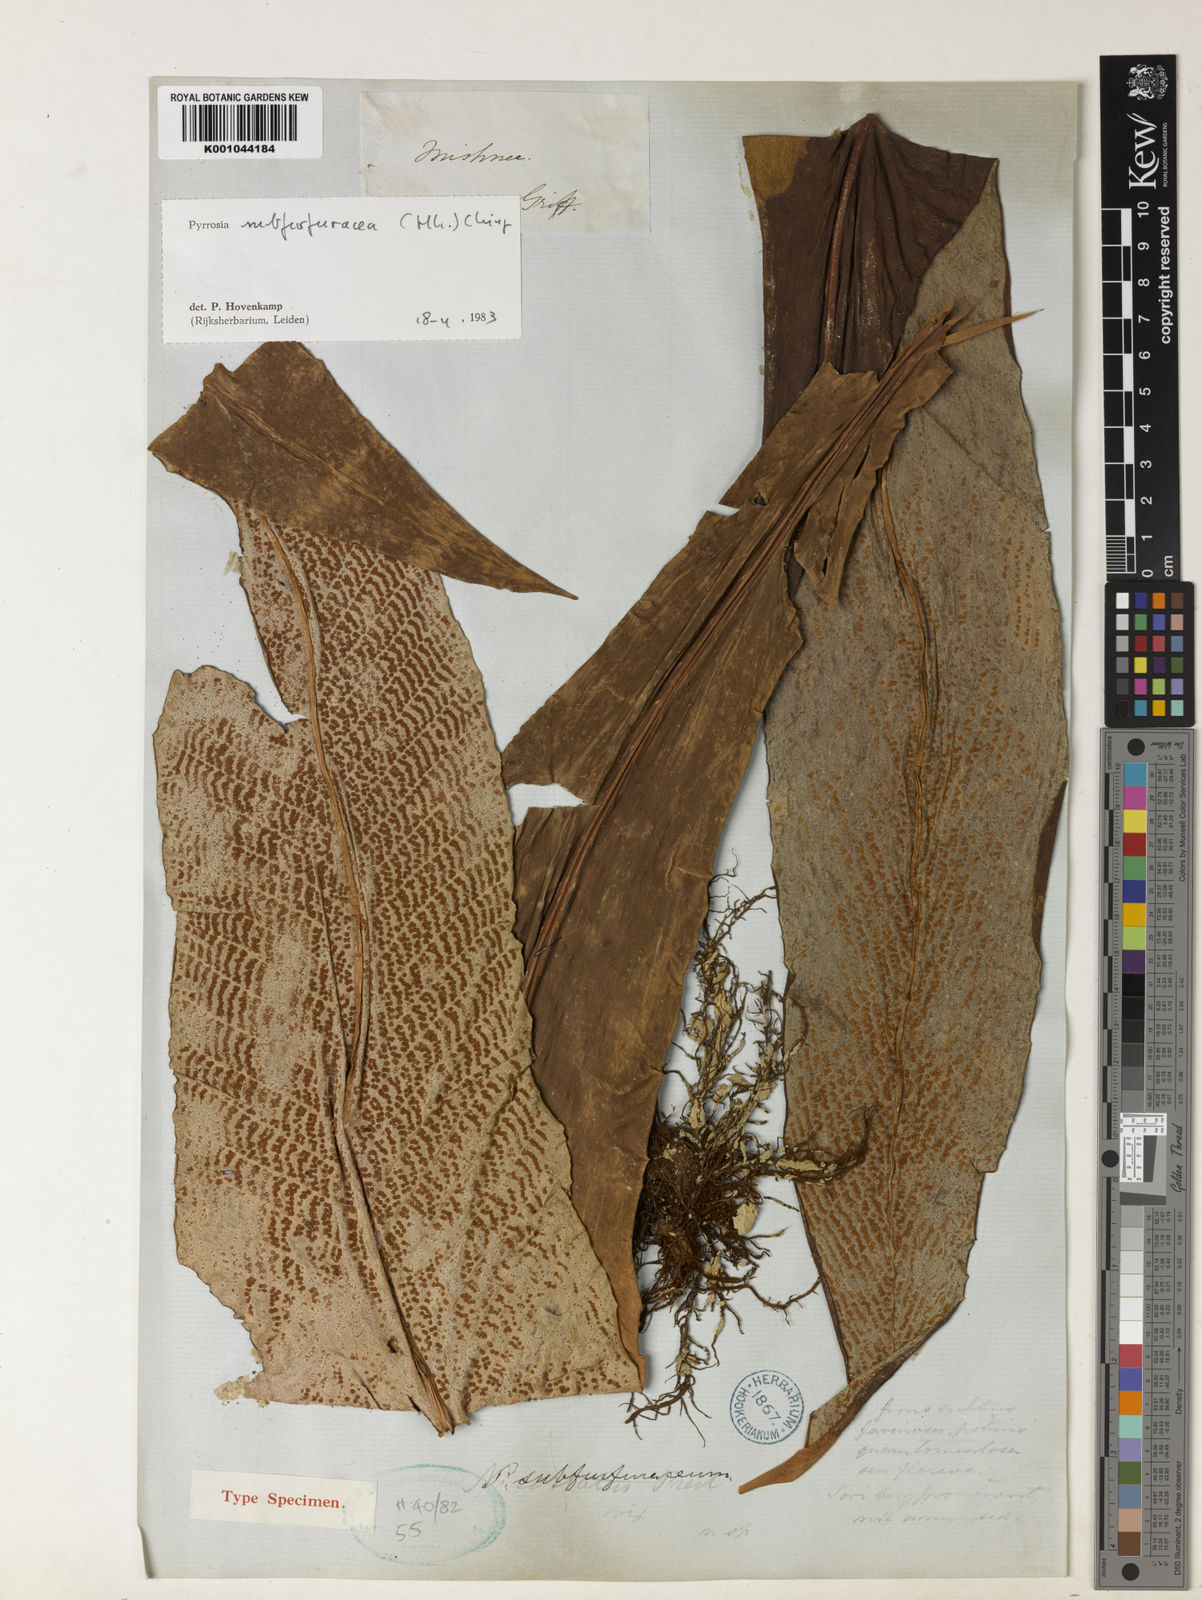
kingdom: Plantae
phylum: Tracheophyta
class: Polypodiopsida
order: Polypodiales
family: Polypodiaceae
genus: Pyrrosia
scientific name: Pyrrosia subfurfuracea
